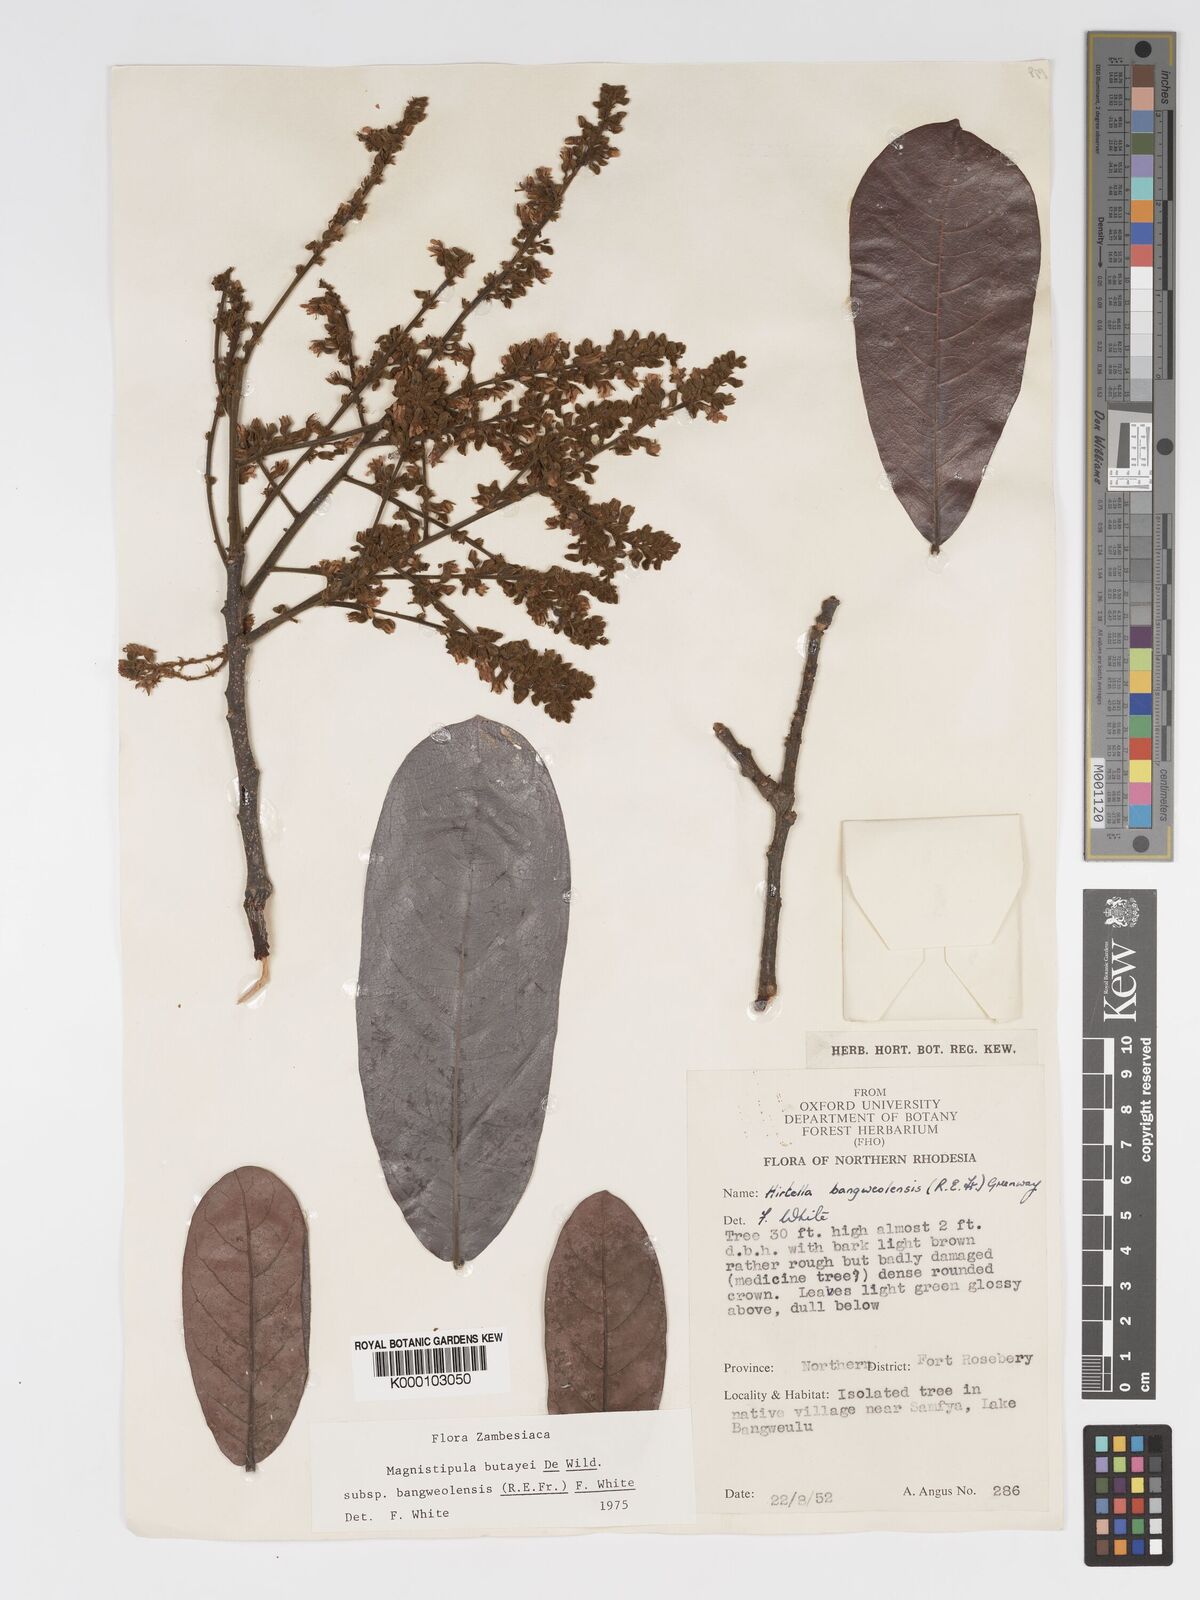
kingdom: Plantae
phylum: Tracheophyta
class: Magnoliopsida
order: Malpighiales
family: Chrysobalanaceae
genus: Magnistipula
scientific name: Magnistipula butayei
